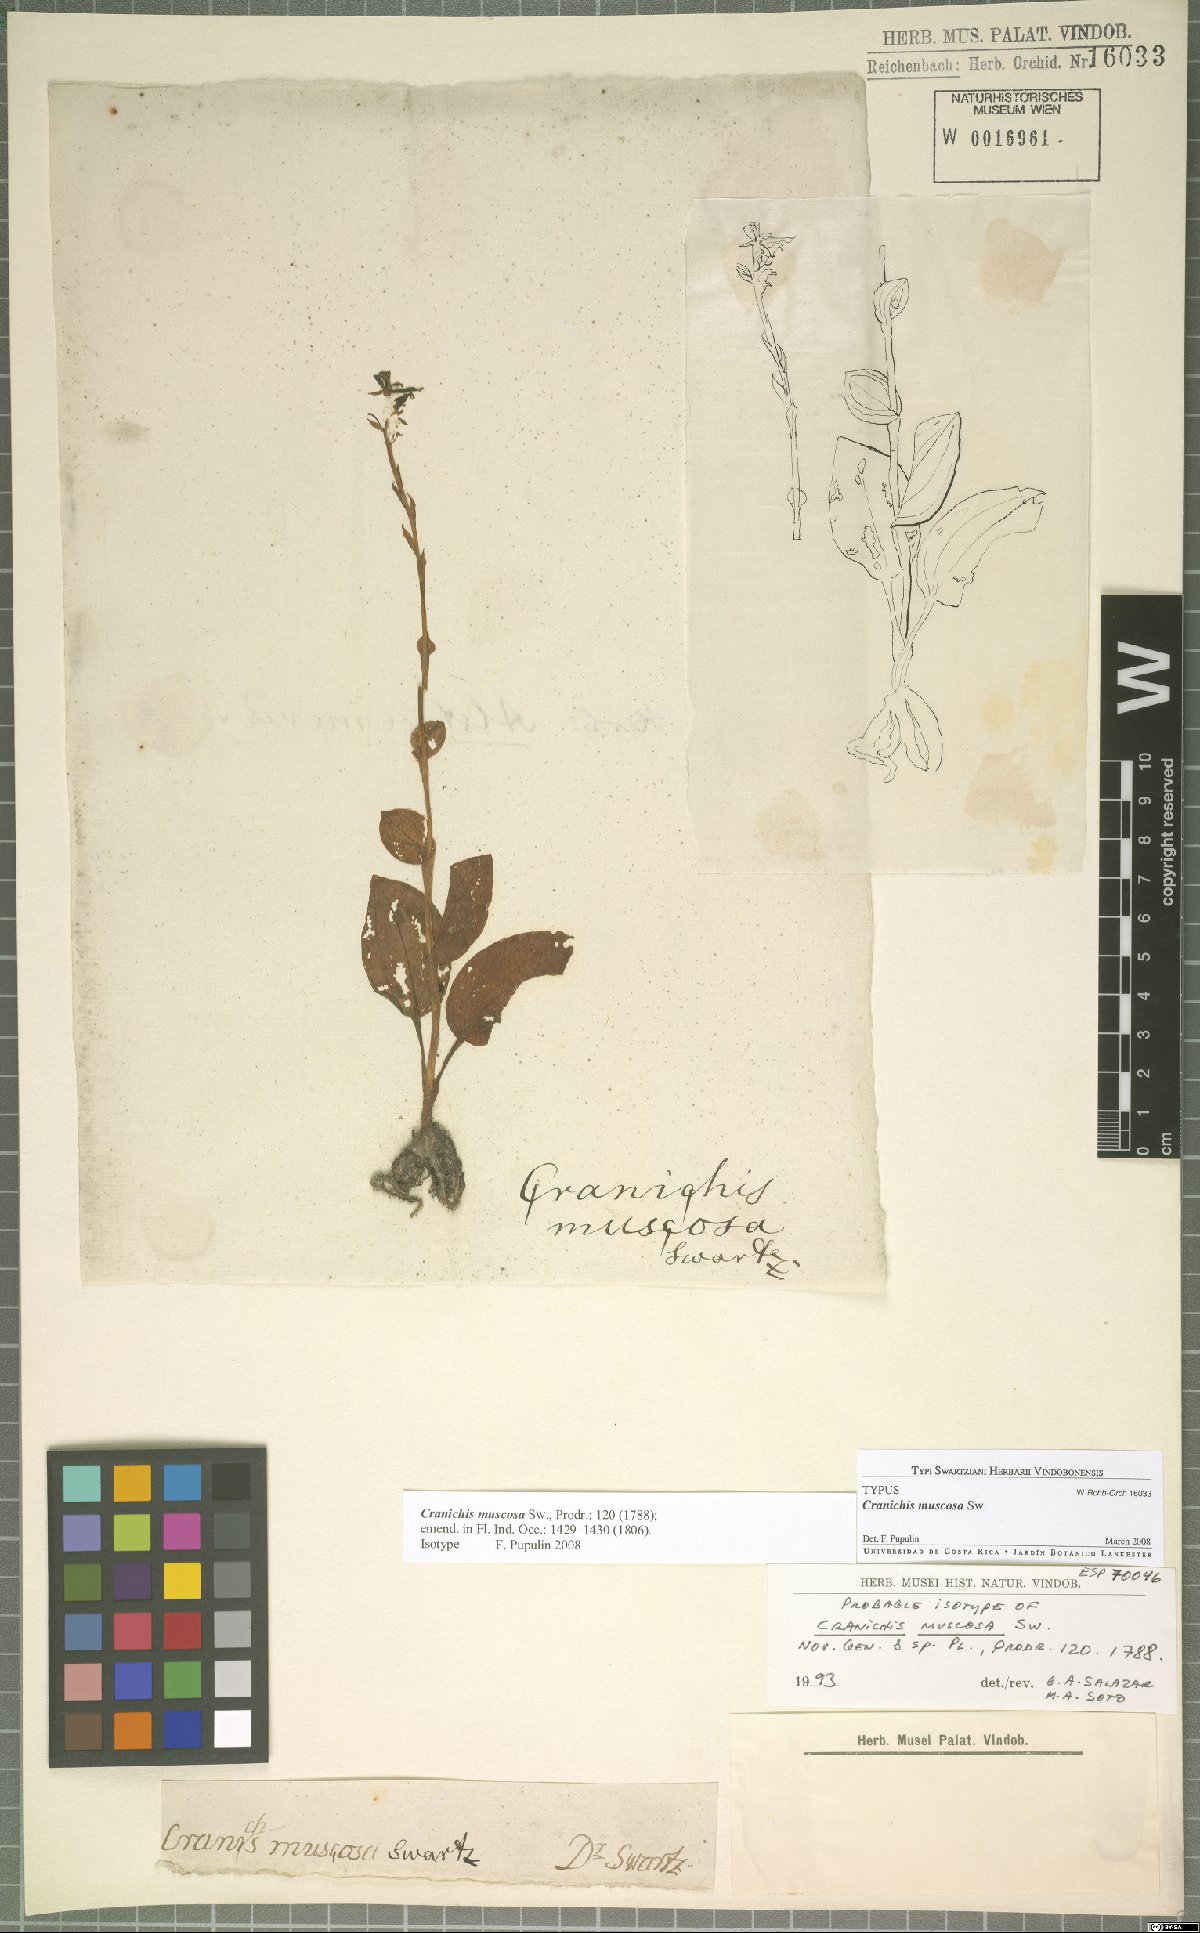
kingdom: Plantae
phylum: Tracheophyta
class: Liliopsida
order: Asparagales
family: Orchidaceae
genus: Cranichis
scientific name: Cranichis muscosa
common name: Cypress-knee helmet orchid
